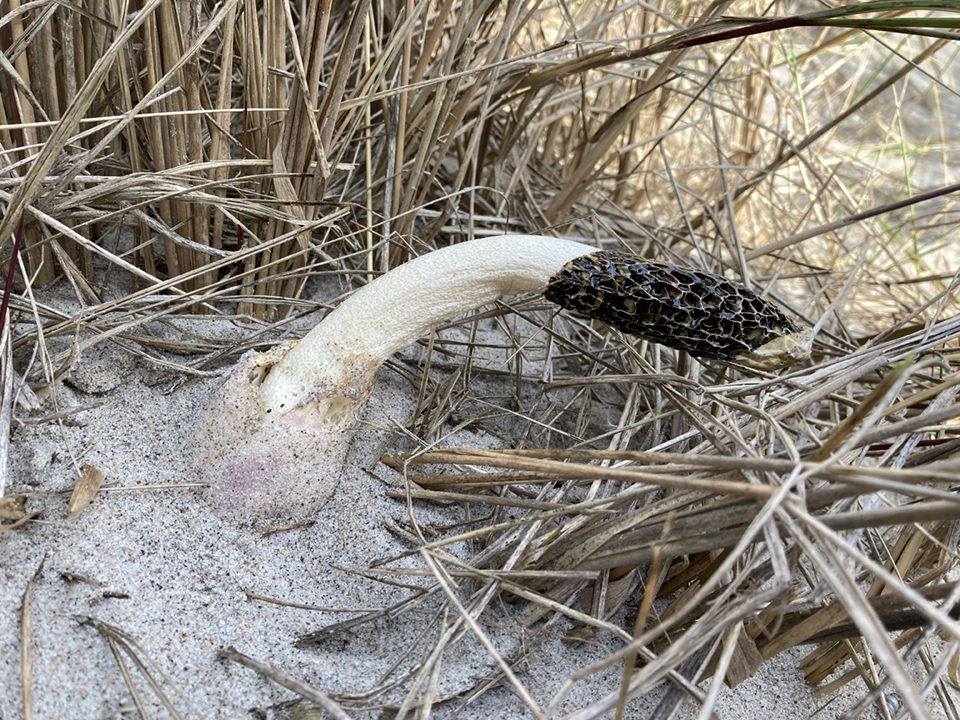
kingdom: Fungi
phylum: Basidiomycota
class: Agaricomycetes
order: Phallales
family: Phallaceae
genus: Phallus
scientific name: Phallus hadriani
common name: sand-stinksvamp
